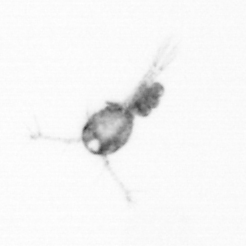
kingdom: Animalia
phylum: Arthropoda
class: Copepoda
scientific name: Copepoda
